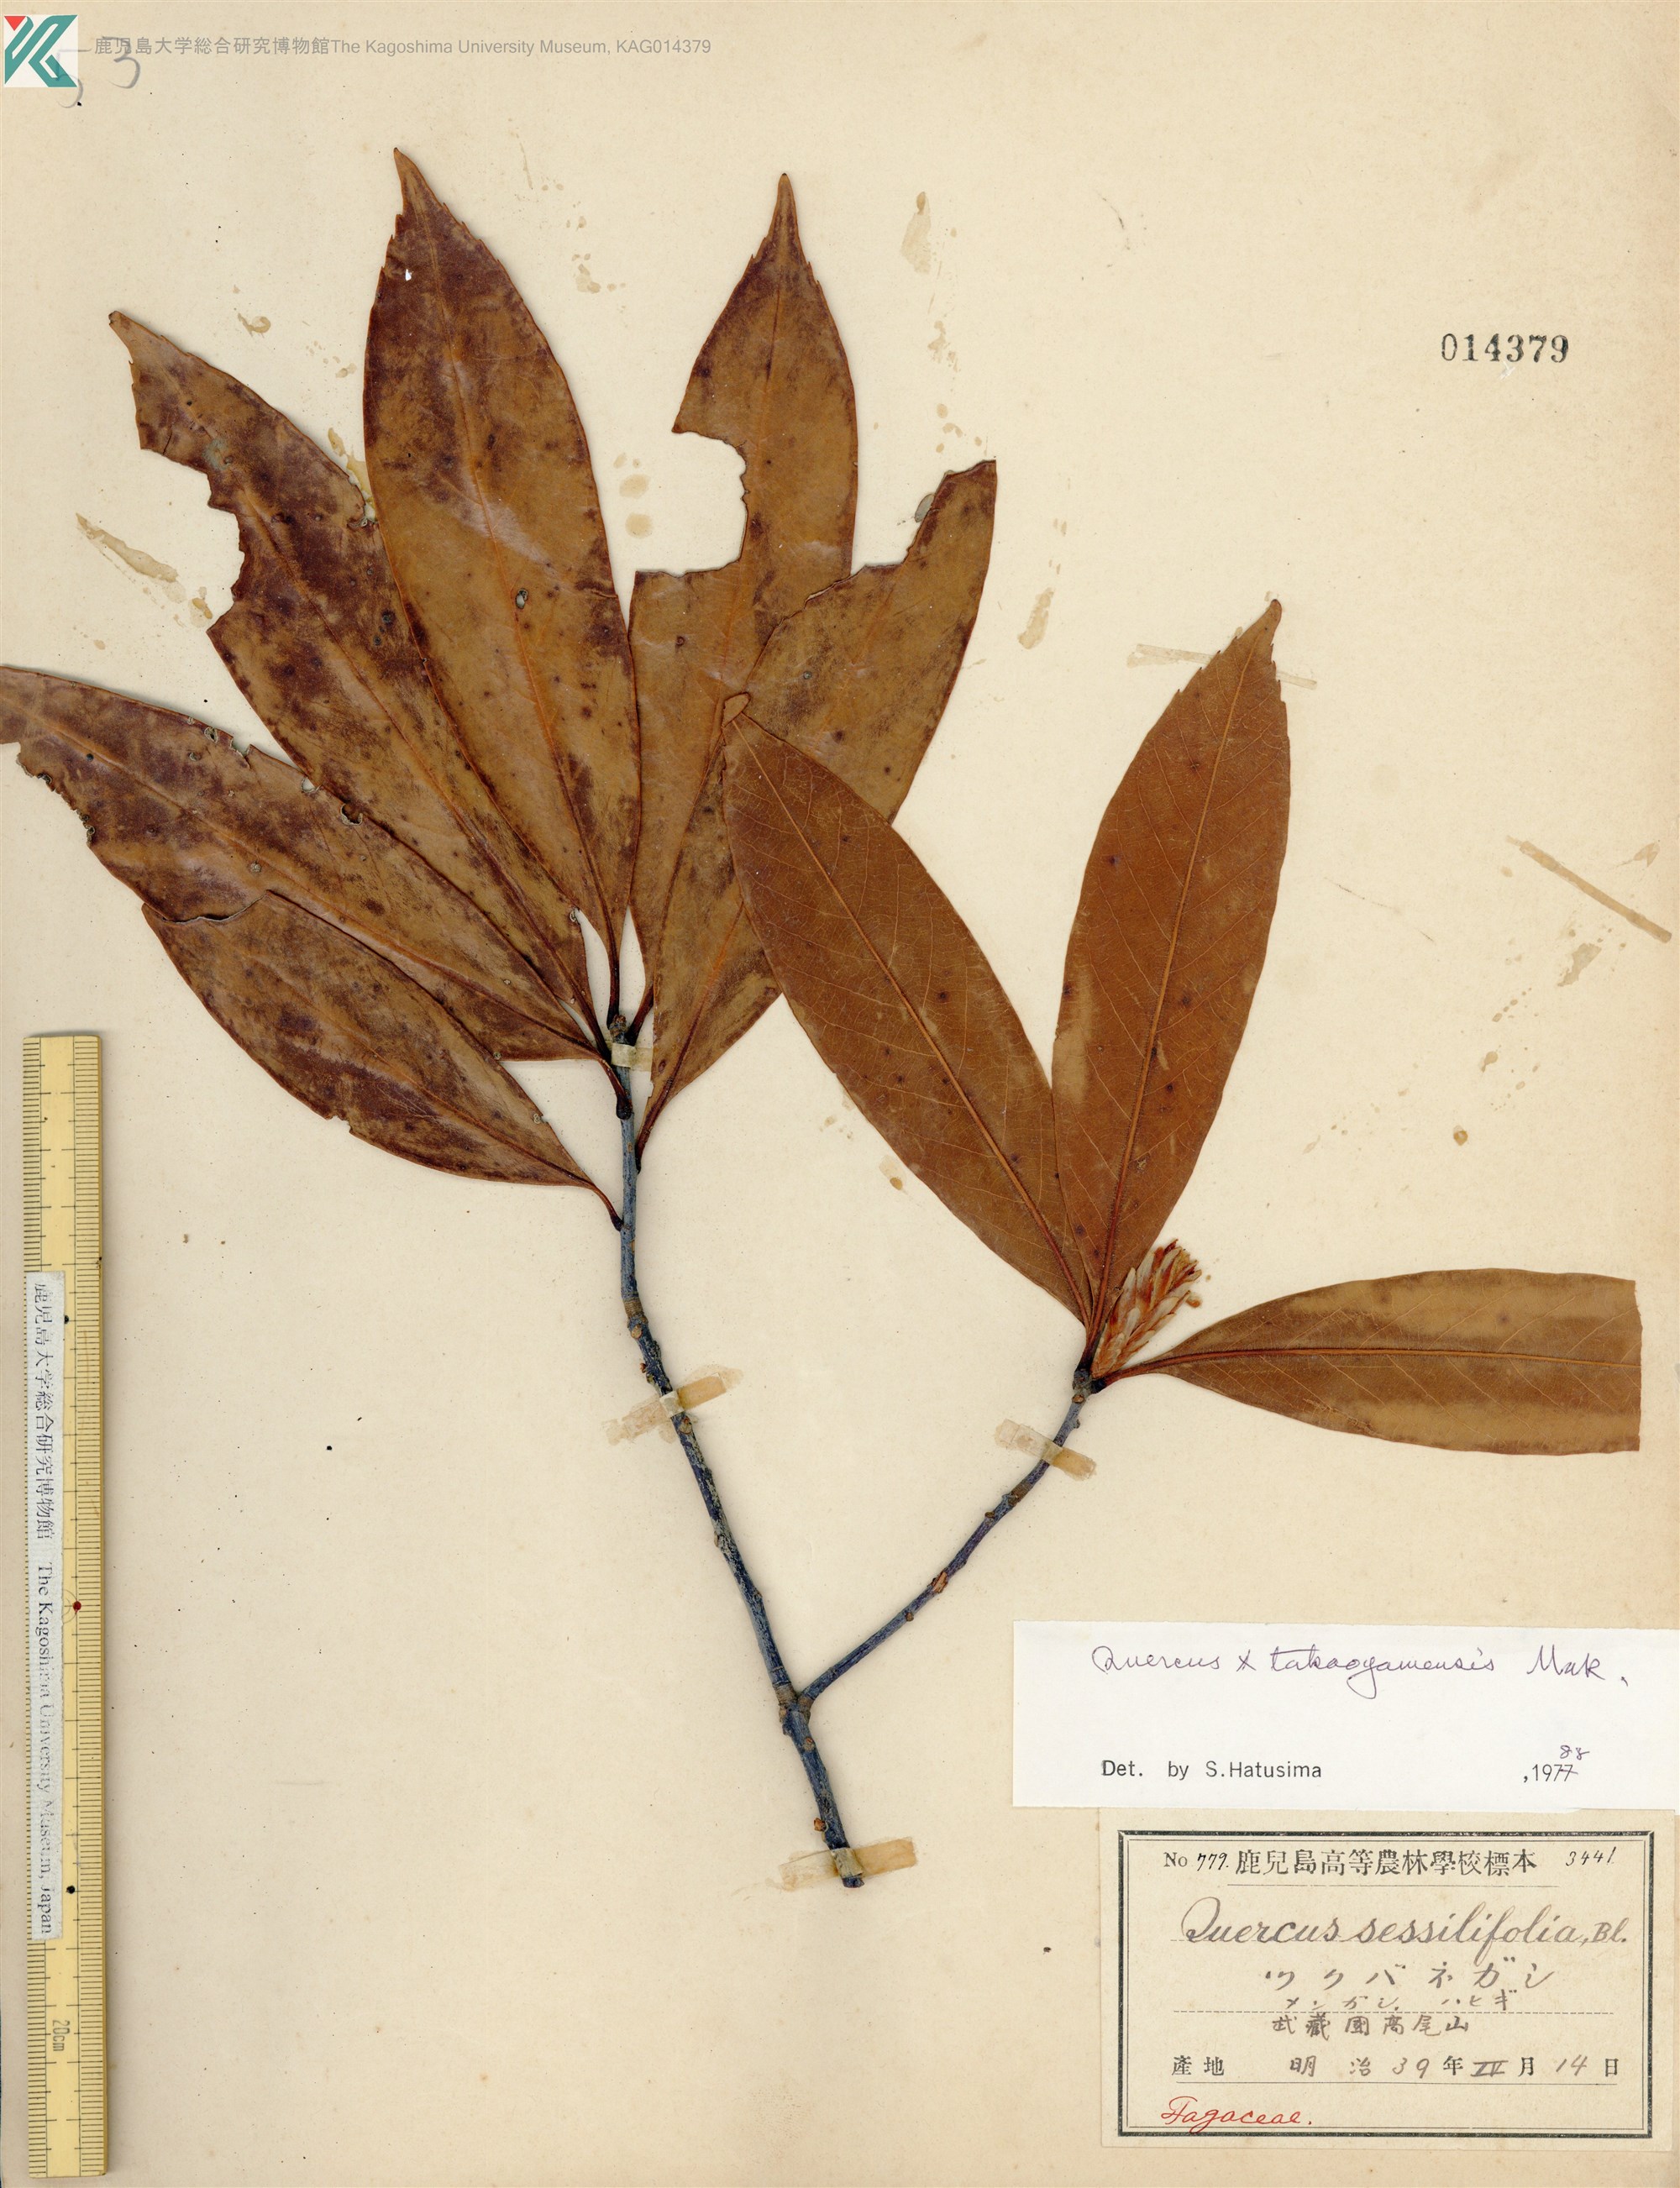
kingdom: Plantae
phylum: Tracheophyta
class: Magnoliopsida
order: Fagales
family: Fagaceae
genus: Quercus
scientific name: Quercus takaoyamensis
